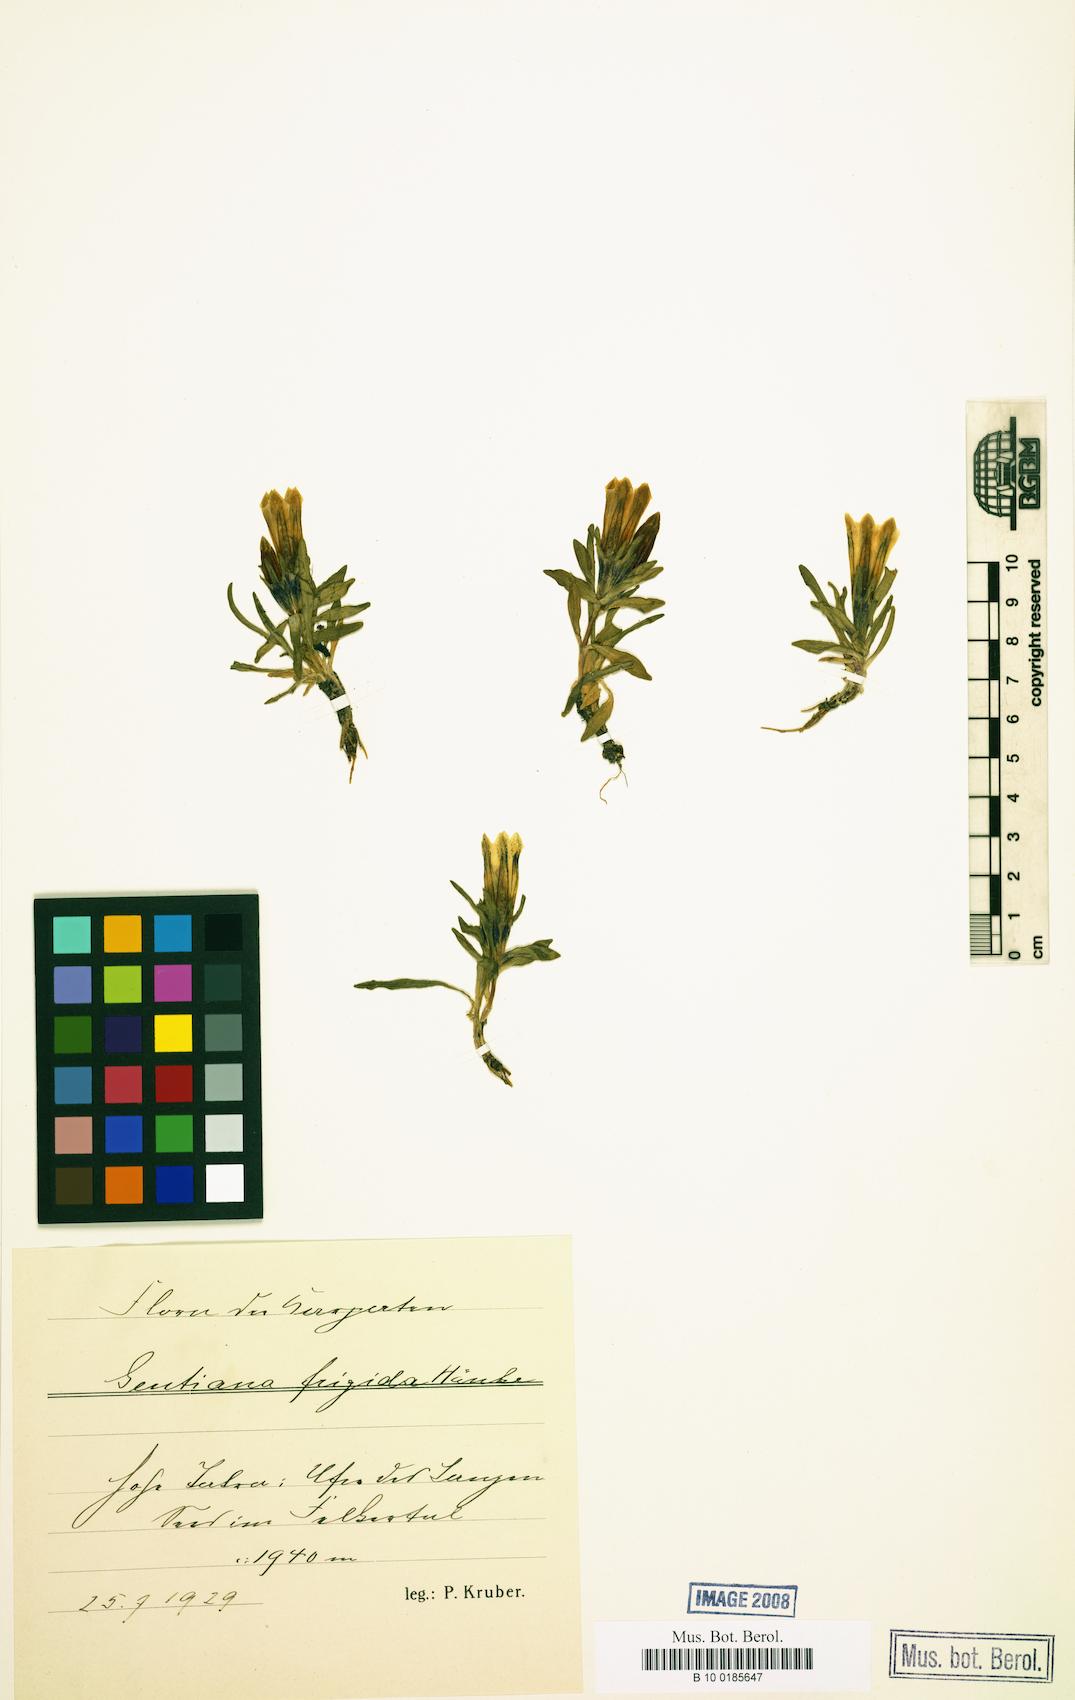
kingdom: Plantae
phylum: Tracheophyta
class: Magnoliopsida
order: Gentianales
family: Gentianaceae
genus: Gentiana
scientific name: Gentiana frigida
